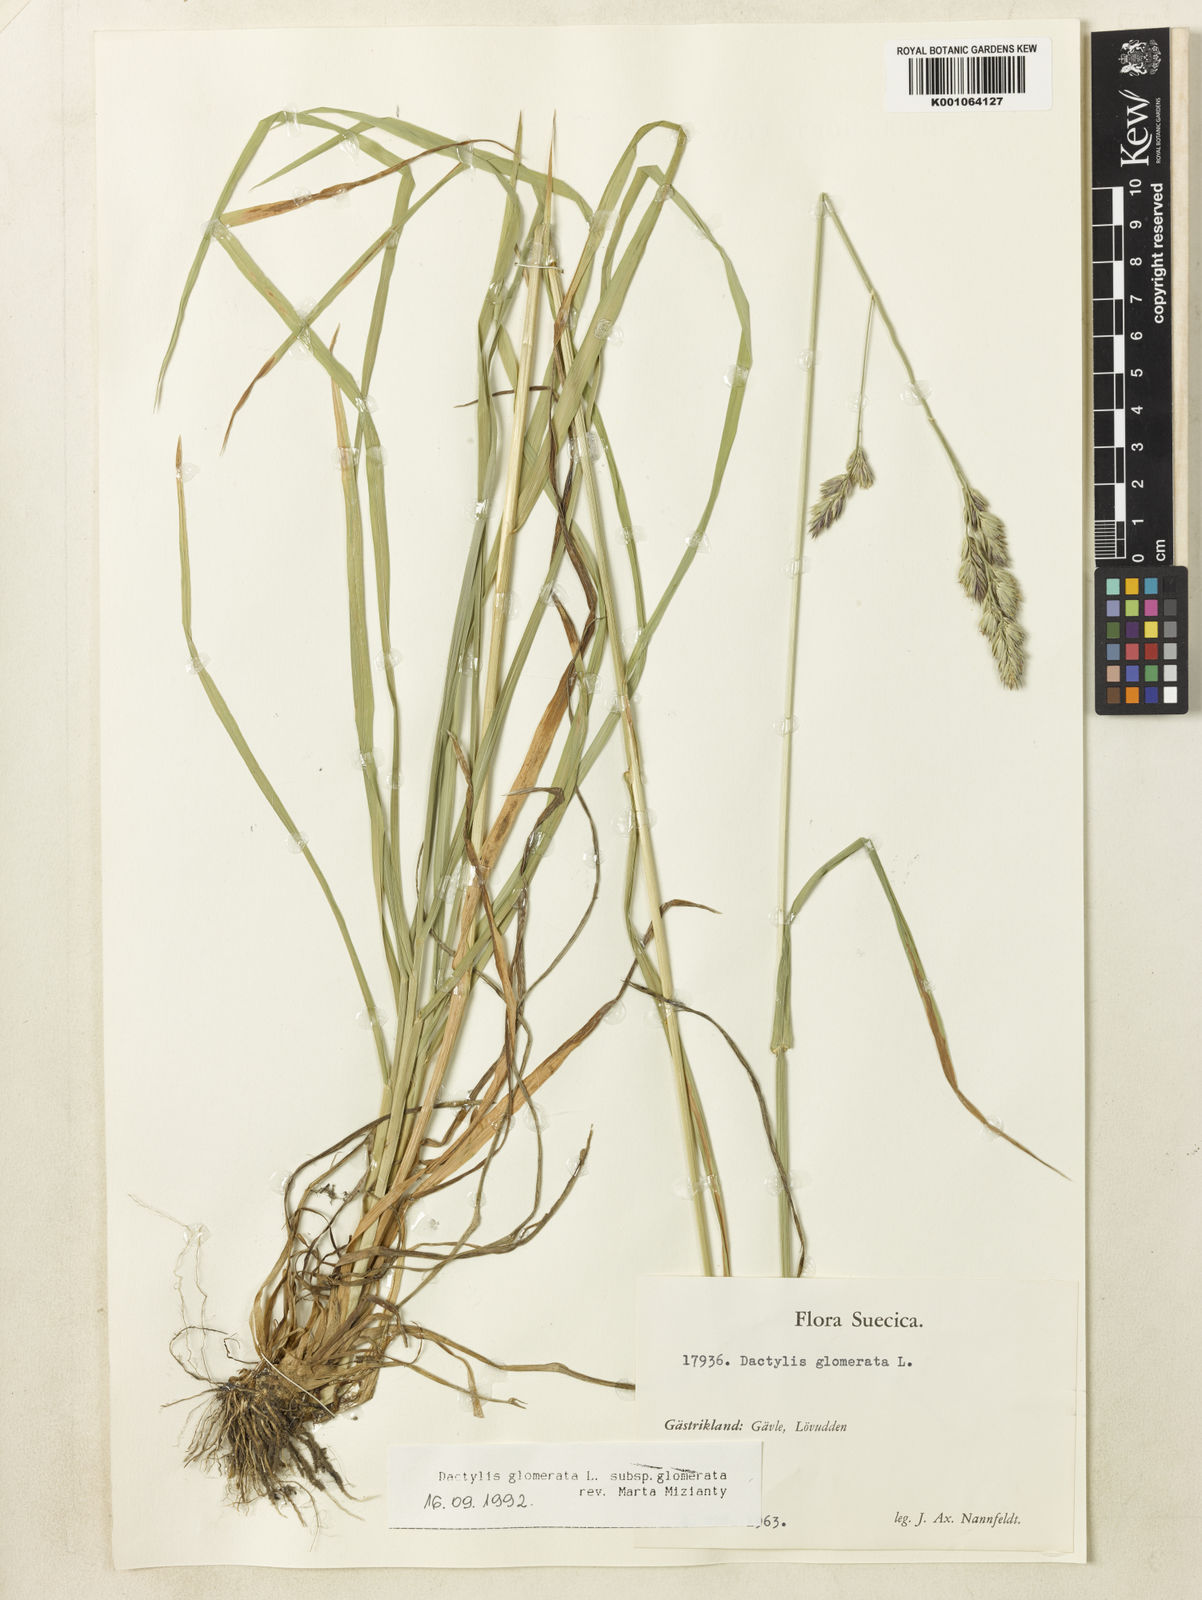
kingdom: Plantae
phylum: Tracheophyta
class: Liliopsida
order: Poales
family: Poaceae
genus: Dactylis
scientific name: Dactylis glomerata
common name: Orchardgrass
